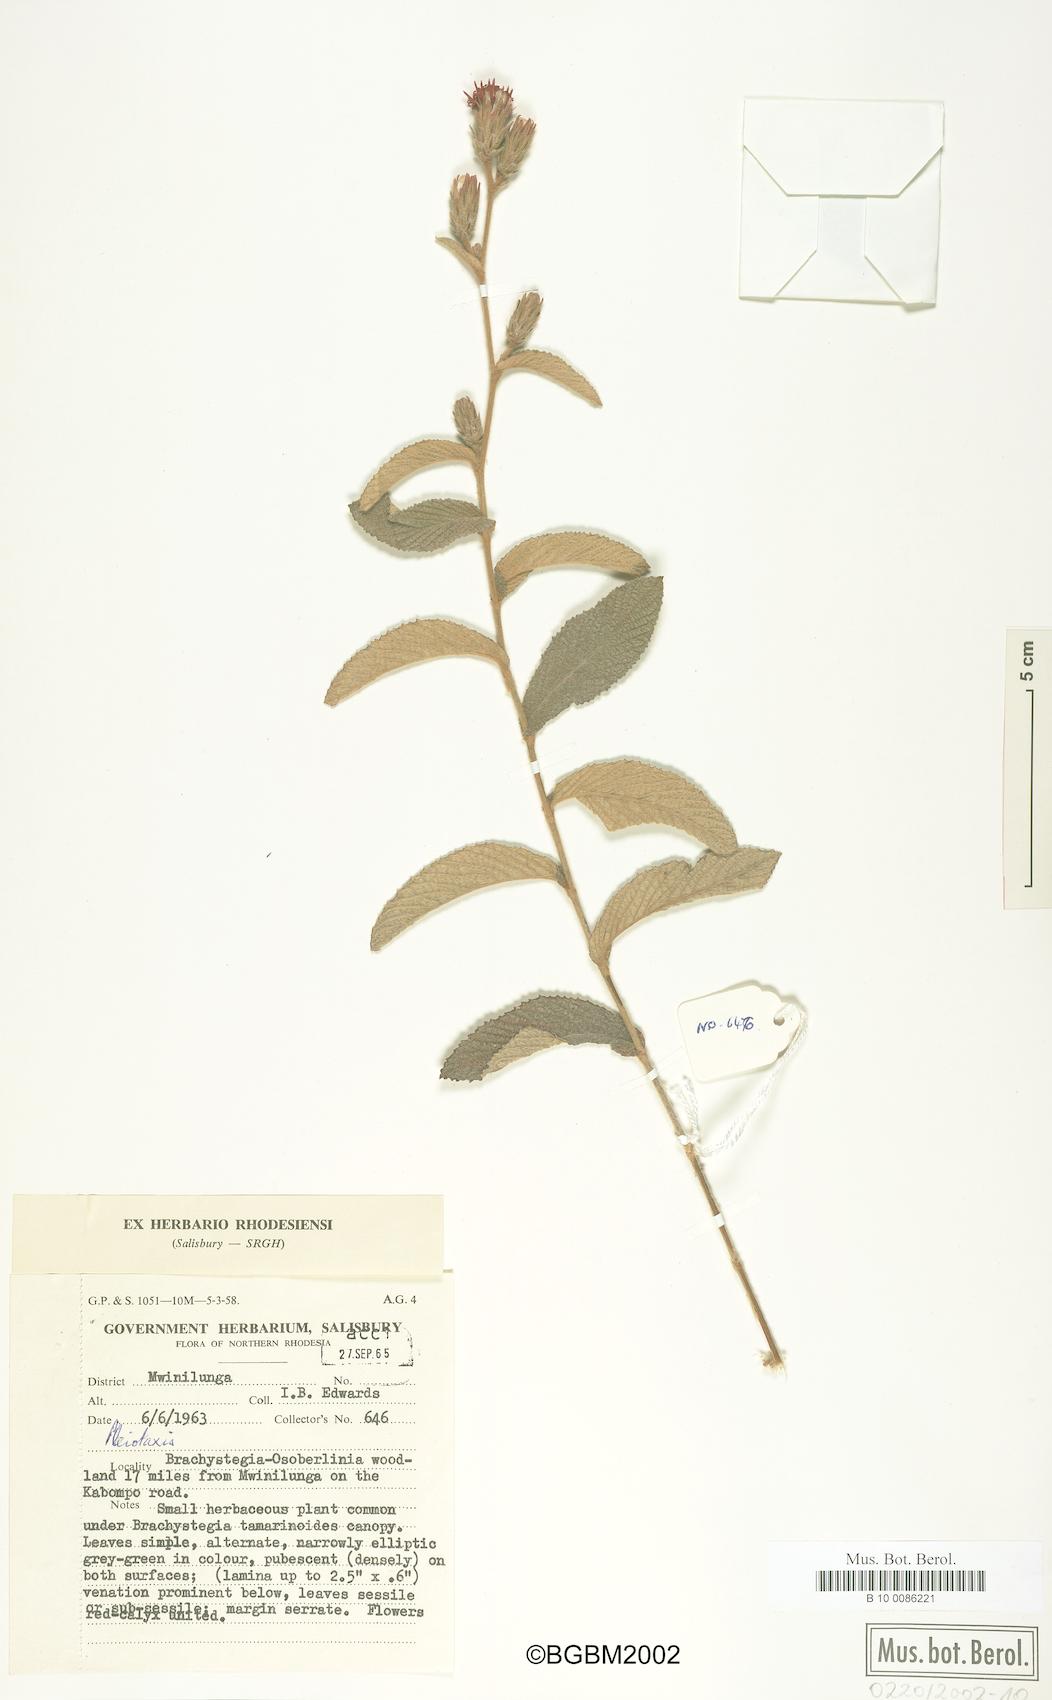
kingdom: Plantae
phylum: Tracheophyta
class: Magnoliopsida
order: Asterales
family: Asteraceae
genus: Pleiotaxis
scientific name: Pleiotaxis
